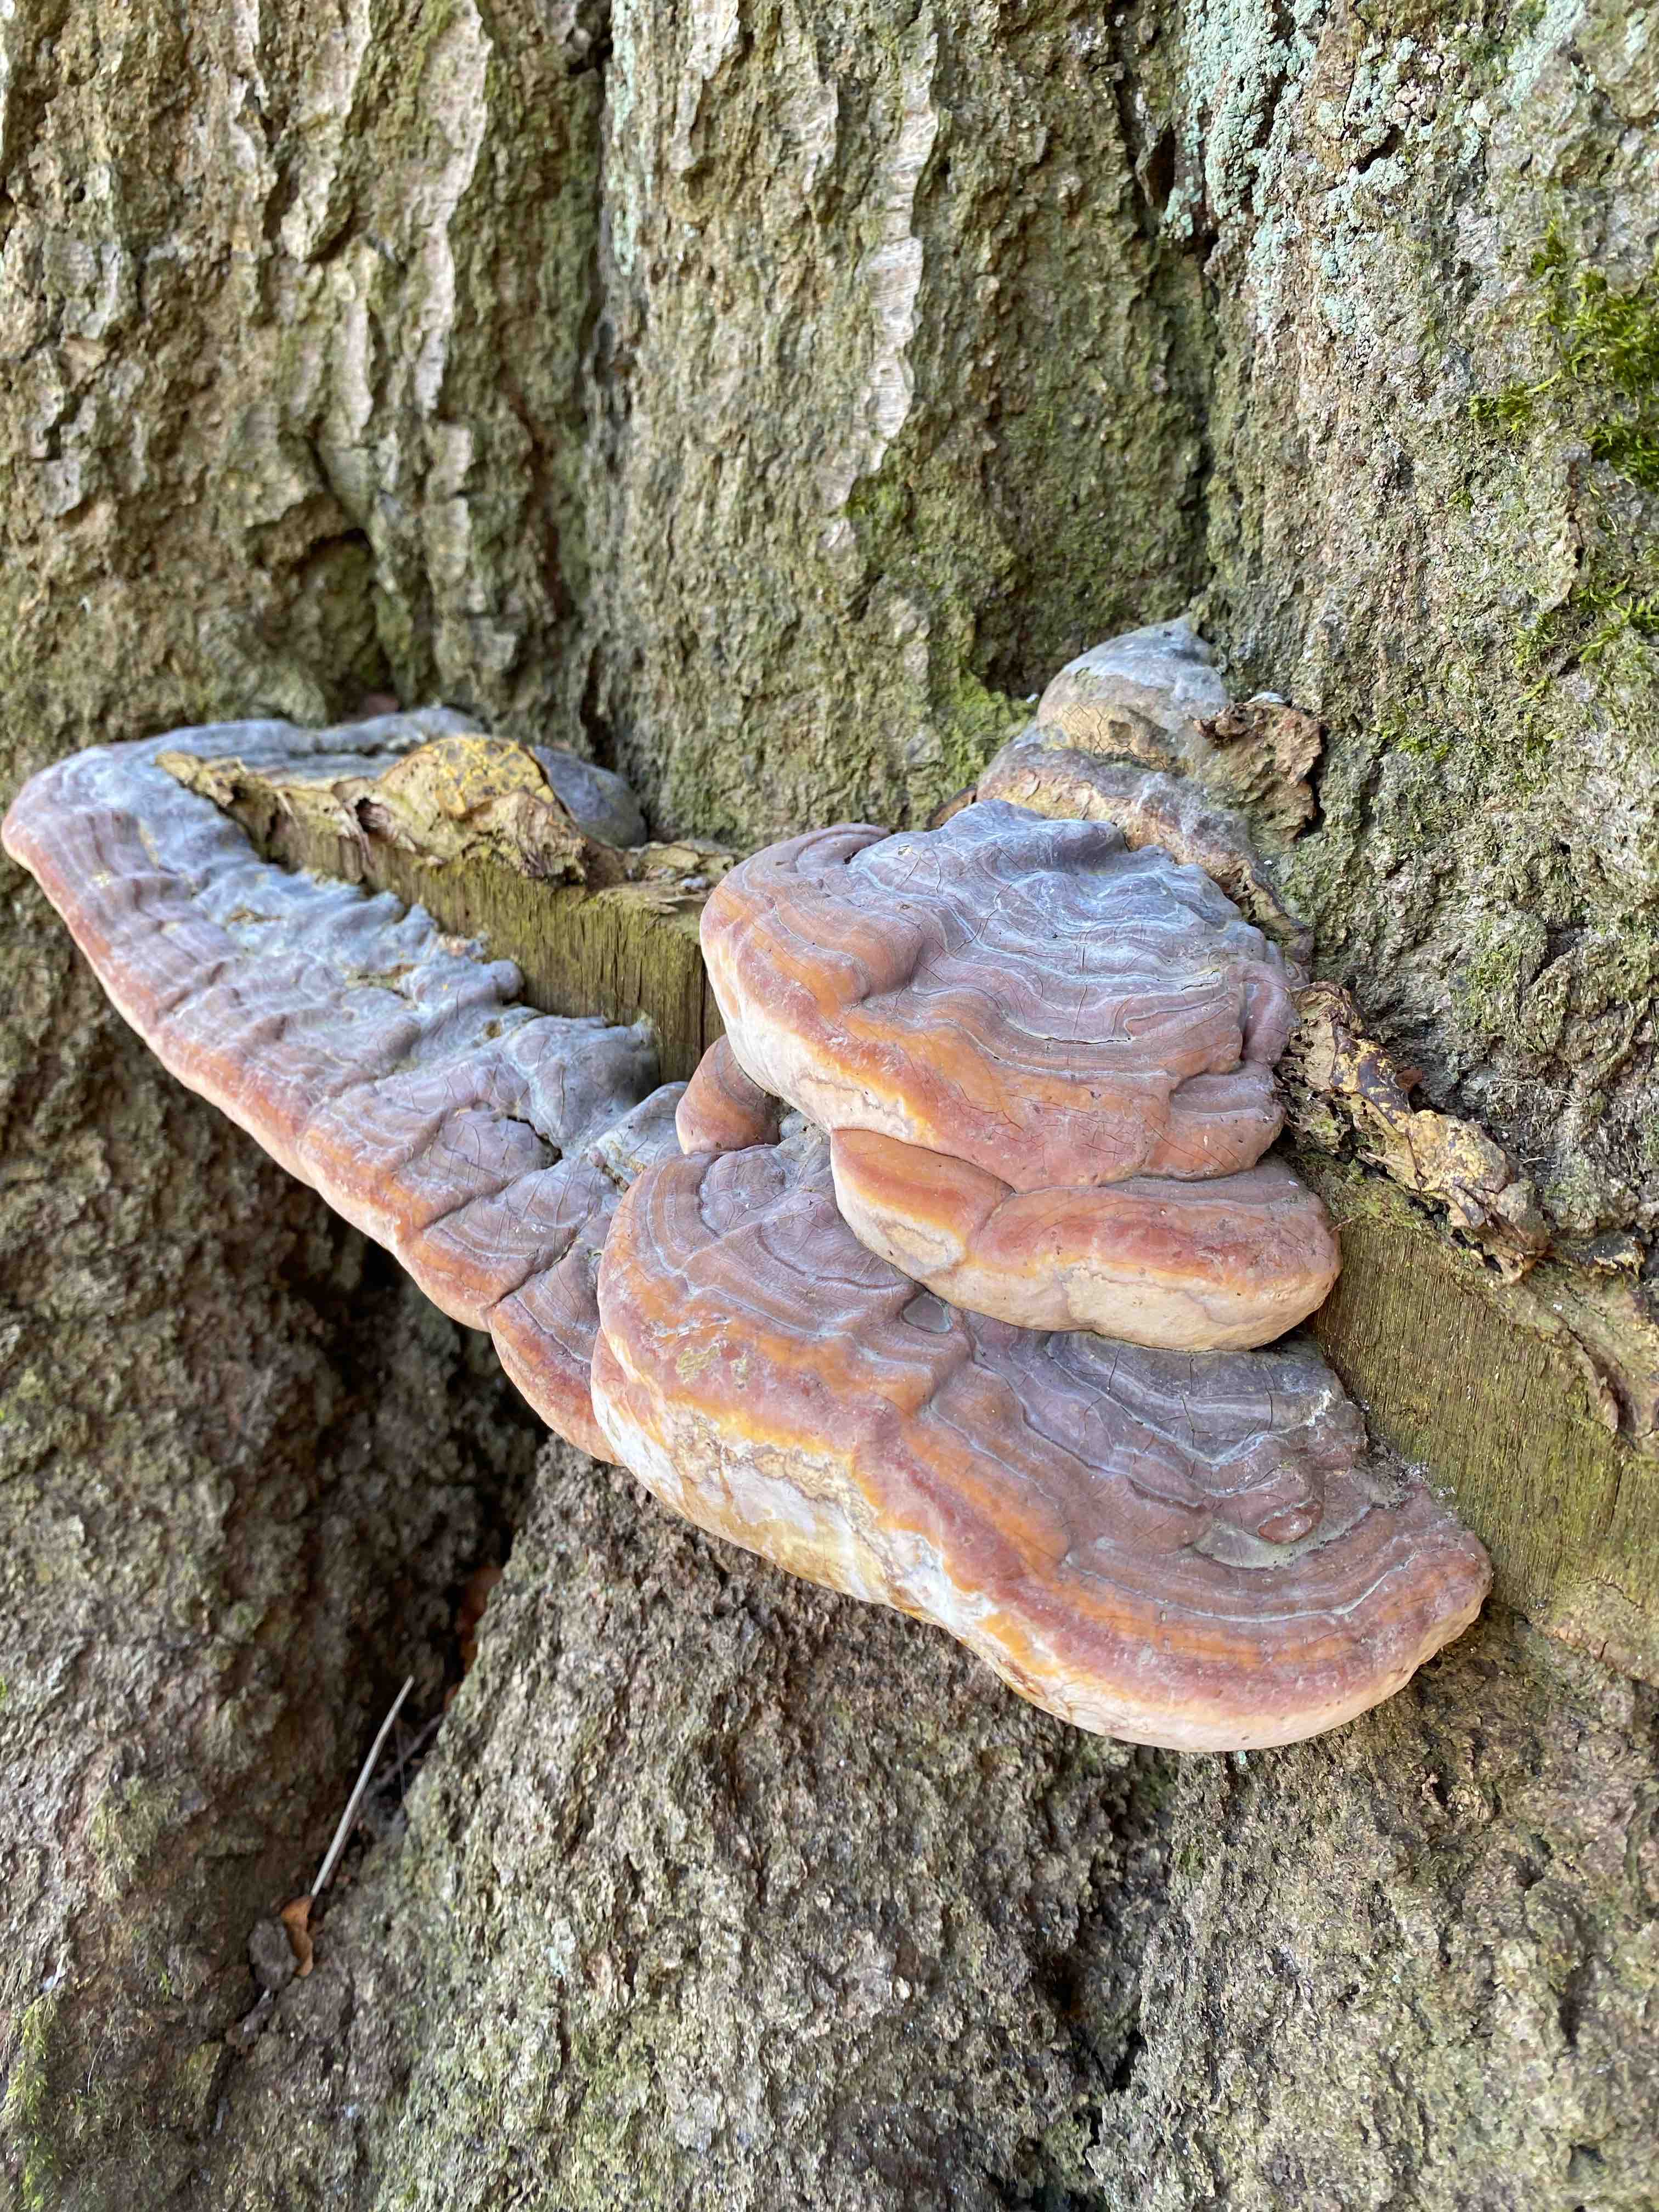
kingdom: Fungi
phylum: Basidiomycota
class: Agaricomycetes
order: Polyporales
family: Polyporaceae
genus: Ganoderma
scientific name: Ganoderma pfeifferi
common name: kobberrød lakporesvamp
